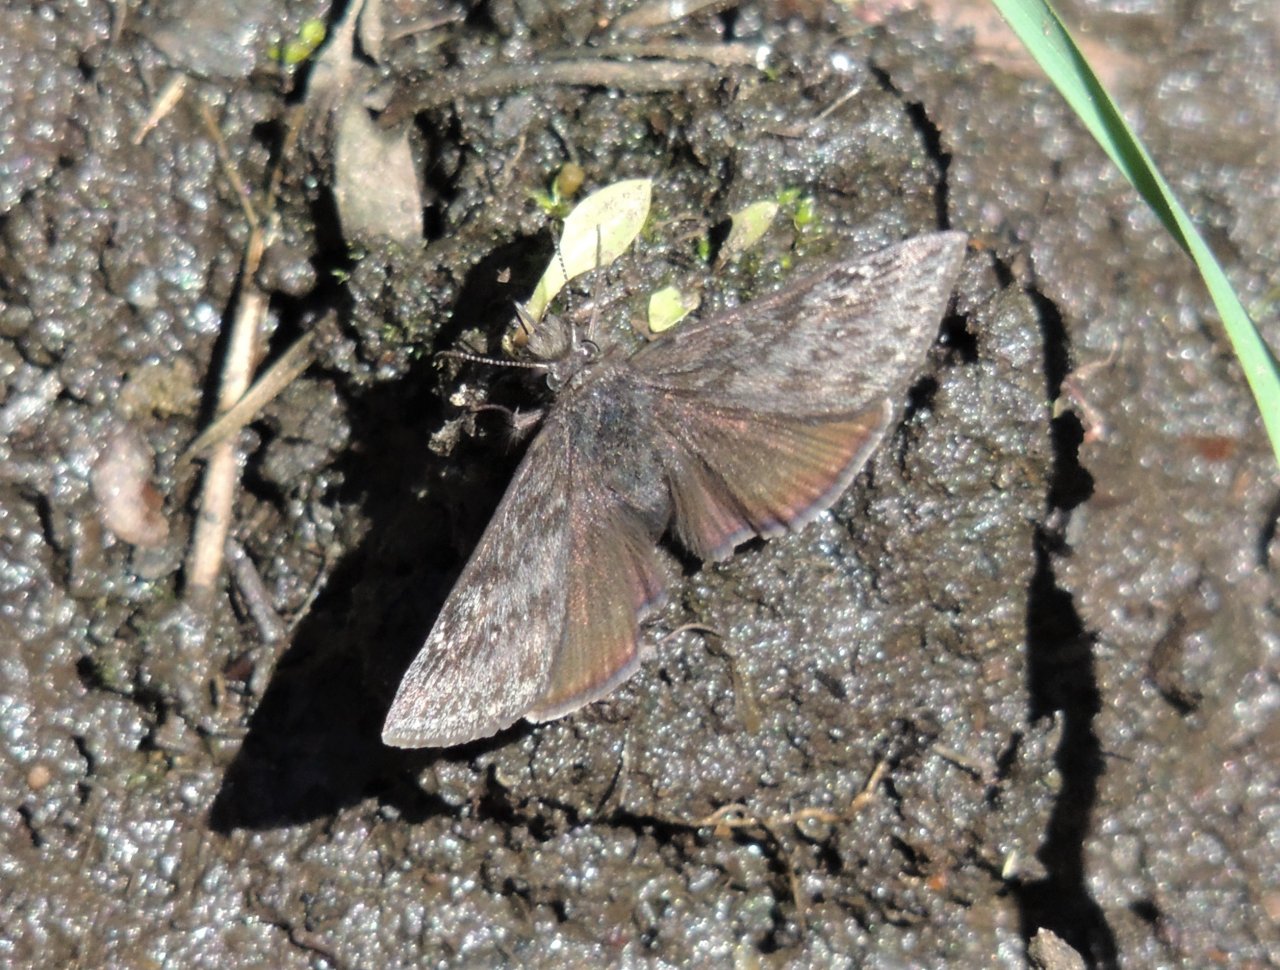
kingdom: Animalia
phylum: Arthropoda
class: Insecta
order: Lepidoptera
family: Hesperiidae
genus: Gesta
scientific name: Gesta
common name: Persius Duskywing
